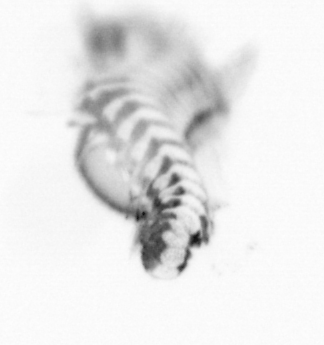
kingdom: Animalia
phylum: Annelida
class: Polychaeta
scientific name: Polychaeta
